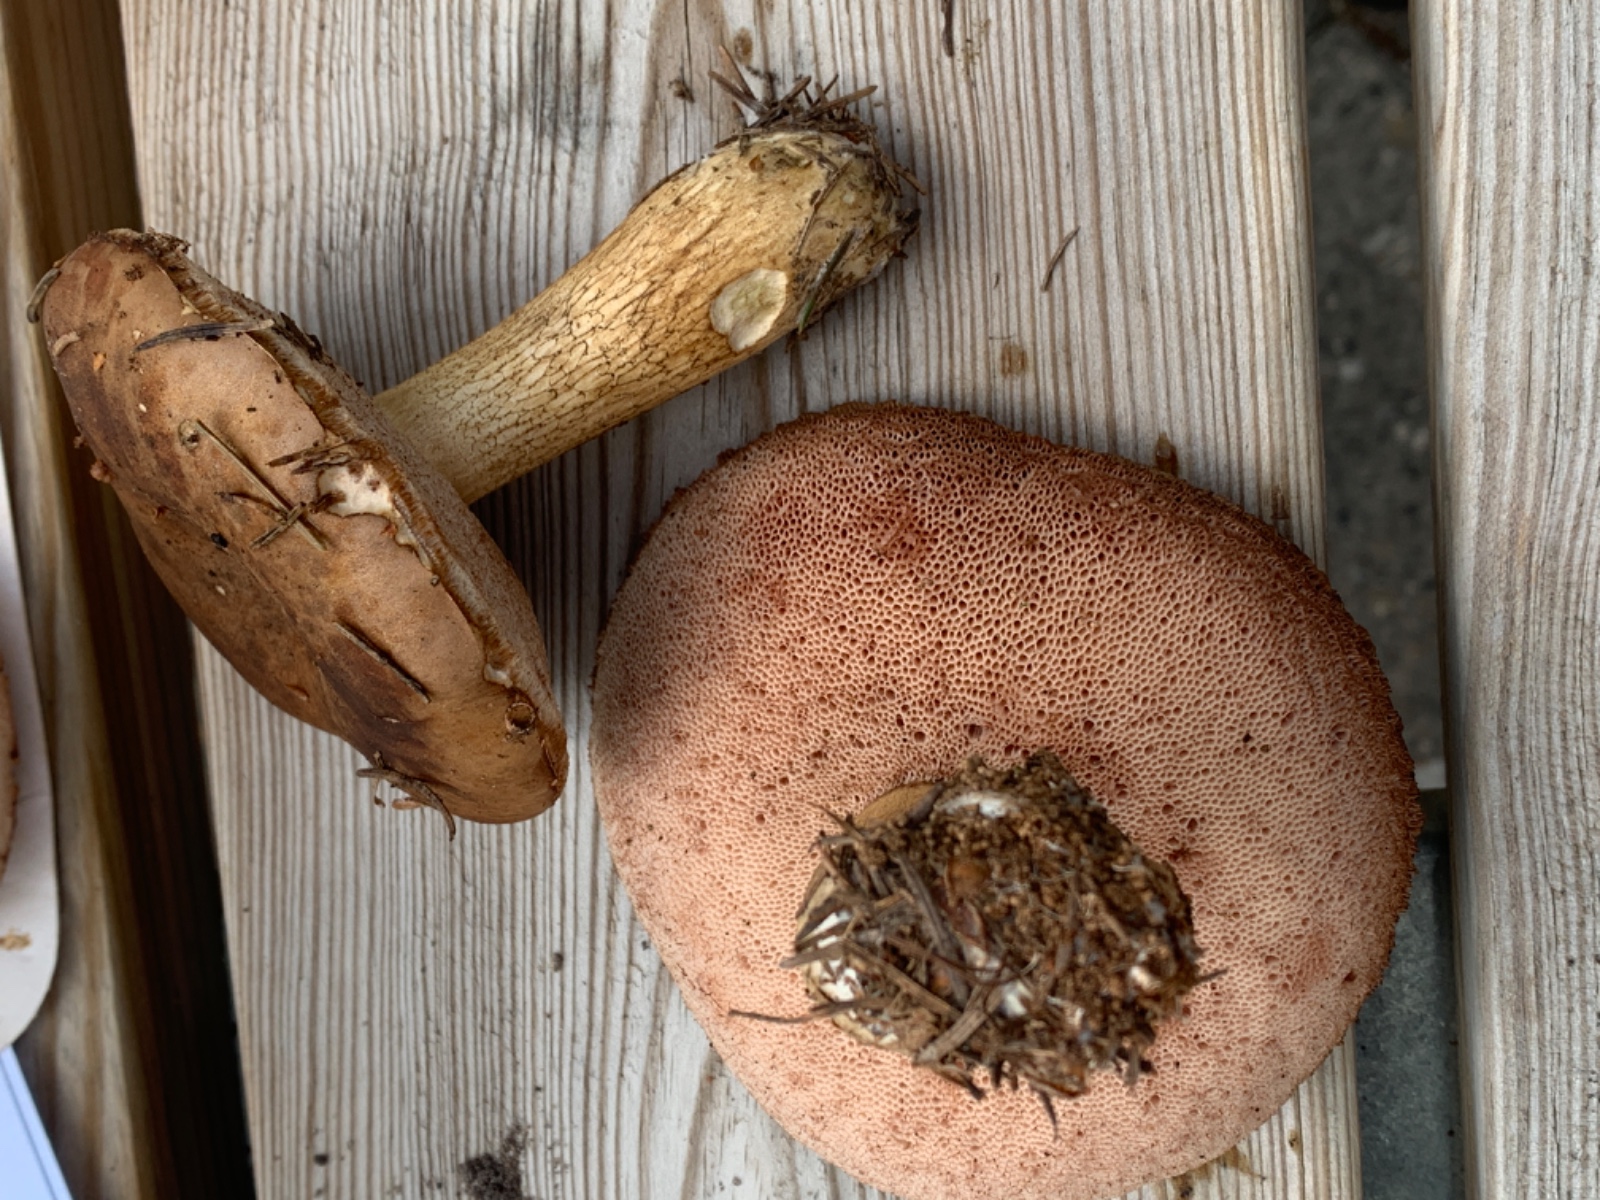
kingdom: Fungi
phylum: Basidiomycota
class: Agaricomycetes
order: Boletales
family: Boletaceae
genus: Tylopilus
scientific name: Tylopilus felleus
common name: galderørhat
